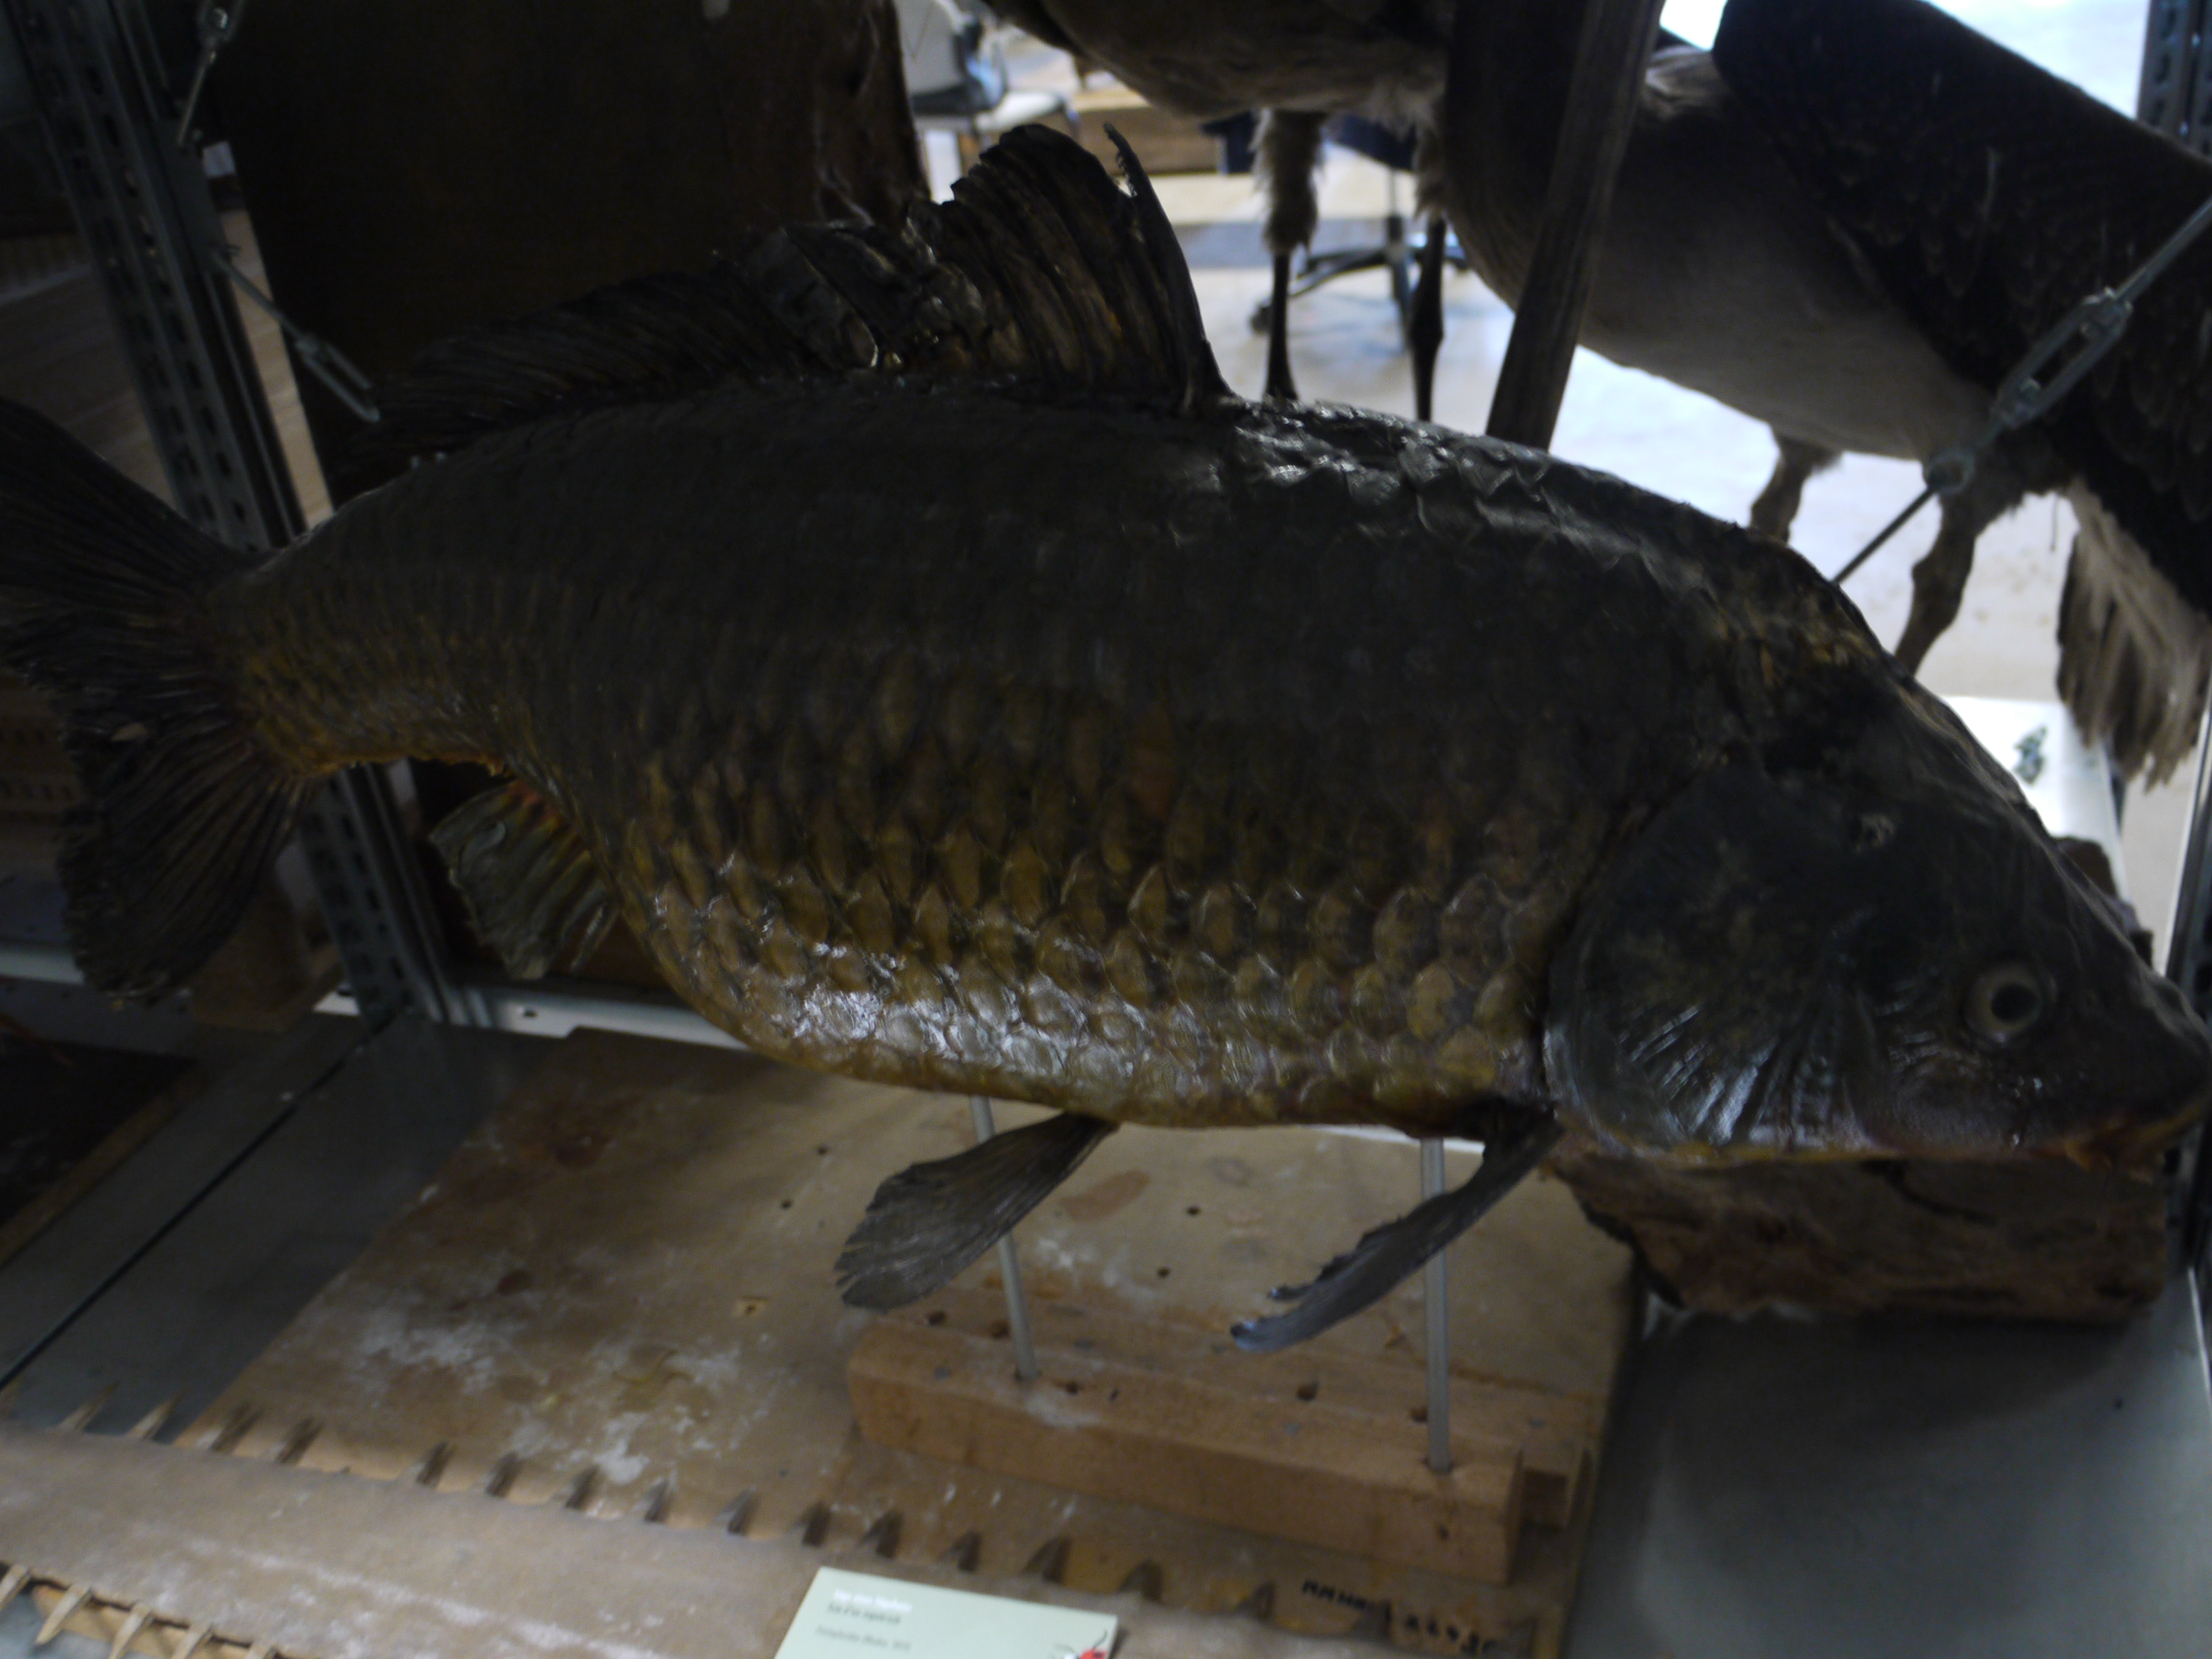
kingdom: Animalia
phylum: Chordata
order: Cypriniformes
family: Cyprinidae
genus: Cyprinus
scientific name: Cyprinus carpio
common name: Common carp
